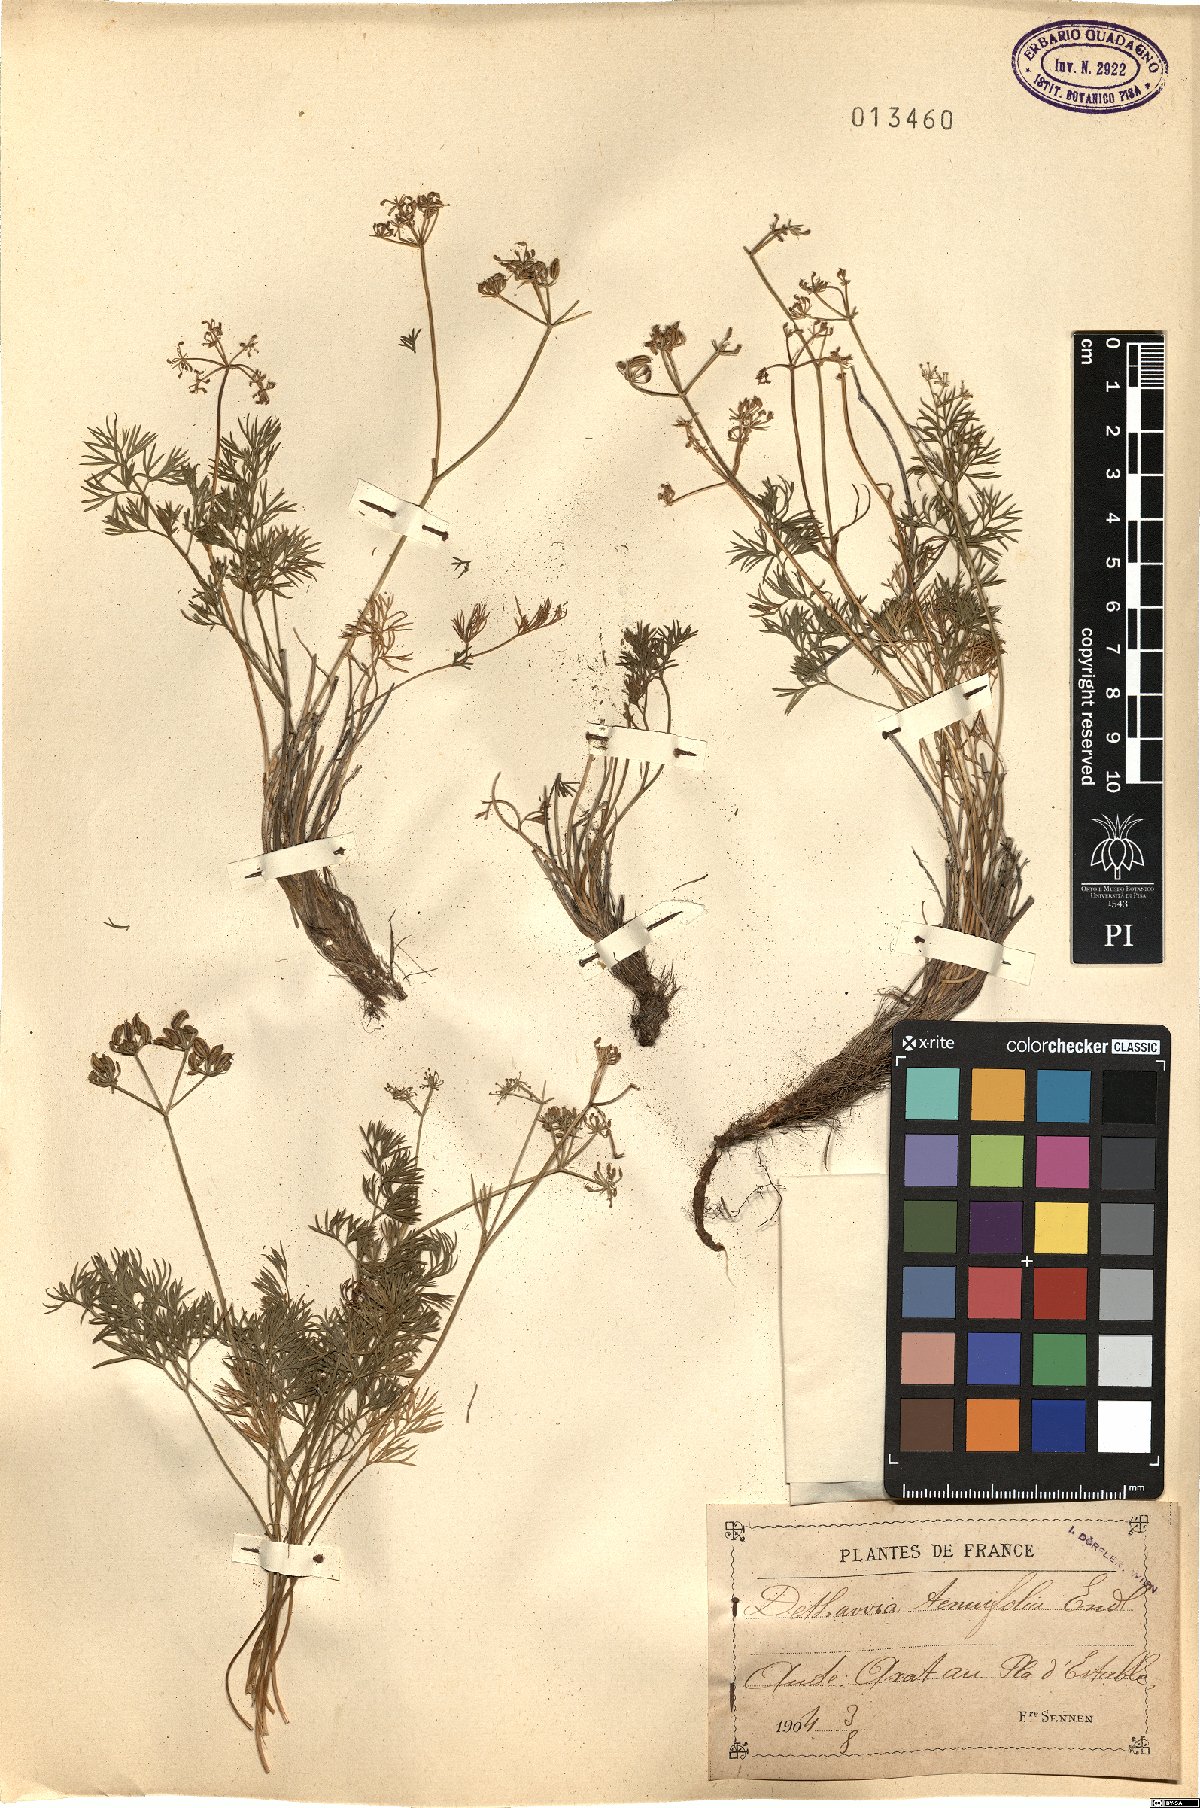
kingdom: Plantae
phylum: Tracheophyta
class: Magnoliopsida
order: Apiales
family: Apiaceae
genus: Dethawia
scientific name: Dethawia splendens
